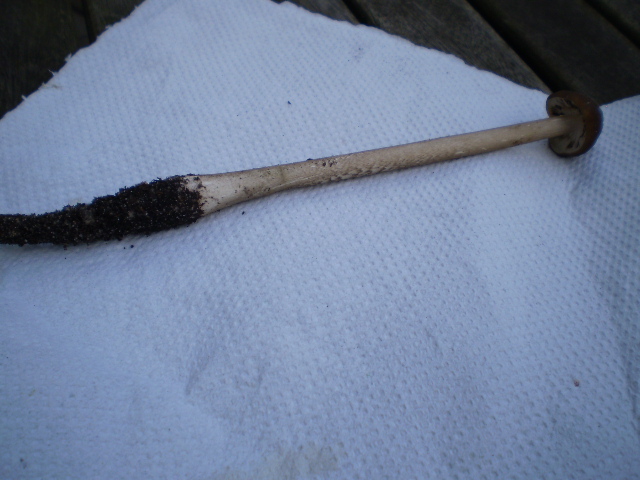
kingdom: Fungi
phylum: Basidiomycota
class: Agaricomycetes
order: Agaricales
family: Physalacriaceae
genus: Hymenopellis
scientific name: Hymenopellis radicata
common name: almindelig pælerodshat
